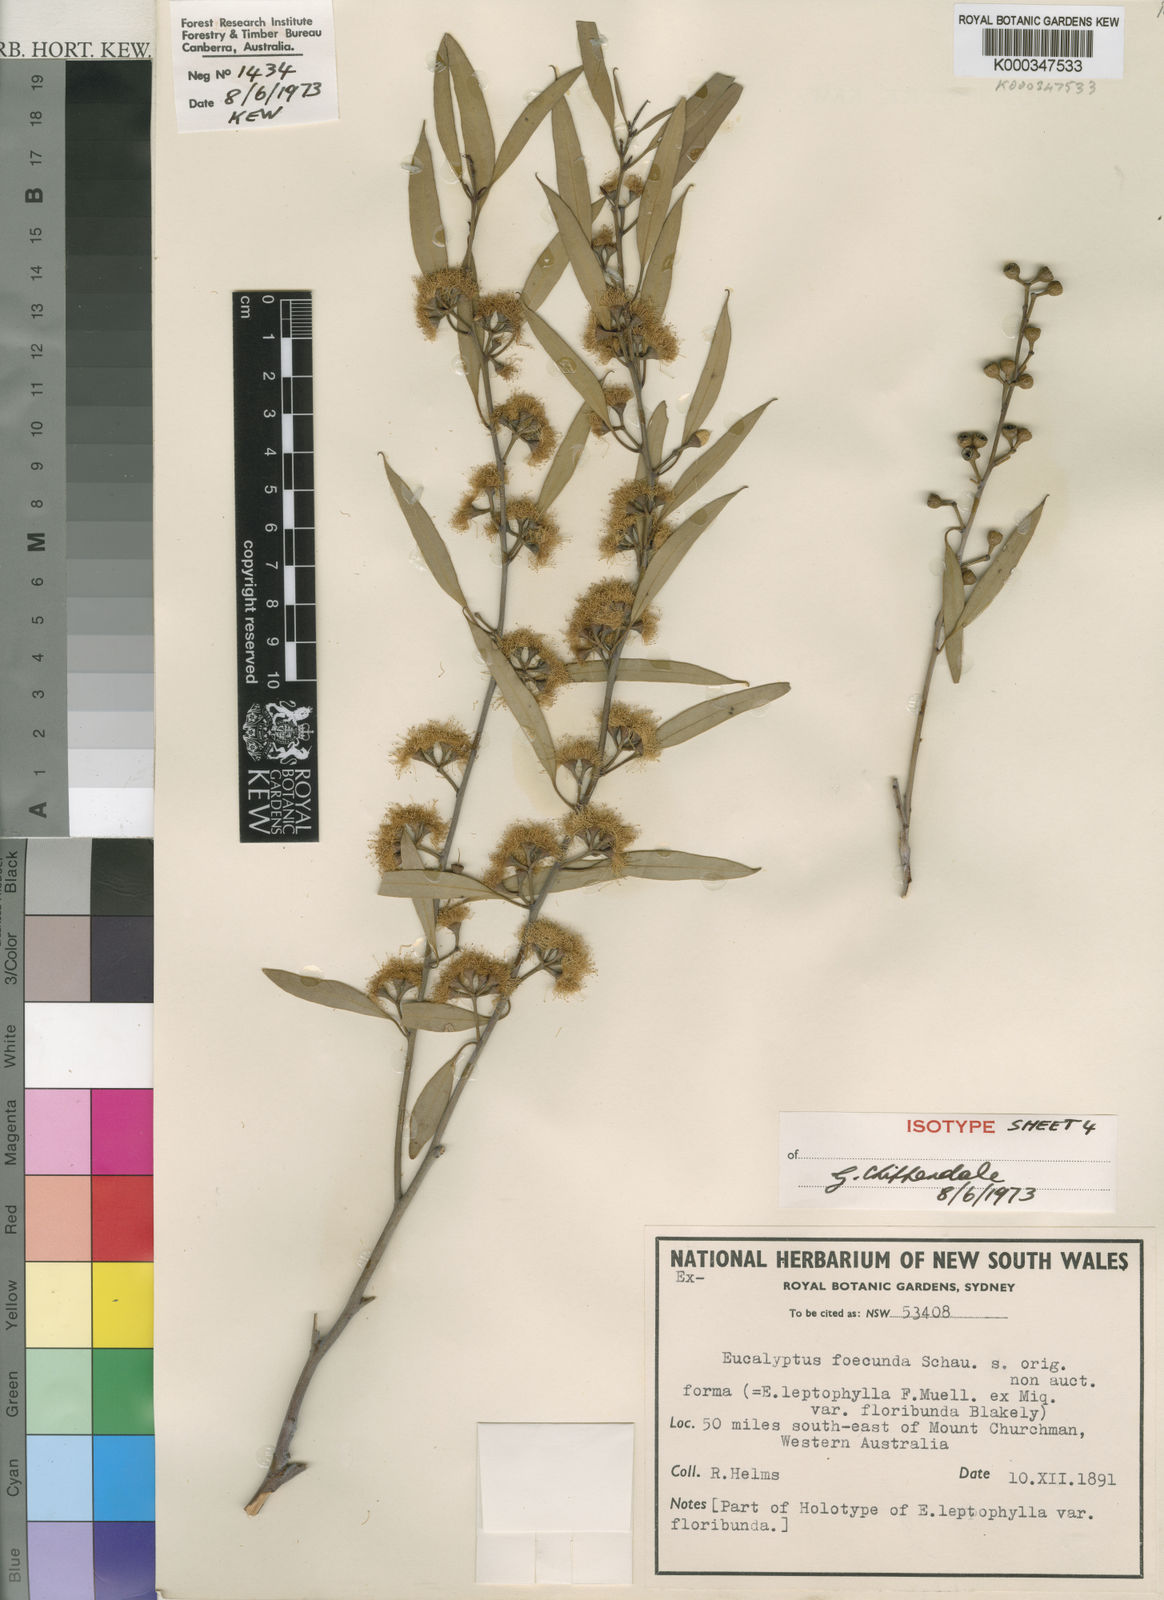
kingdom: Plantae
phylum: Tracheophyta
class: Magnoliopsida
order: Myrtales
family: Myrtaceae
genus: Eucalyptus
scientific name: Eucalyptus foecunda
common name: Freemantle mallee
